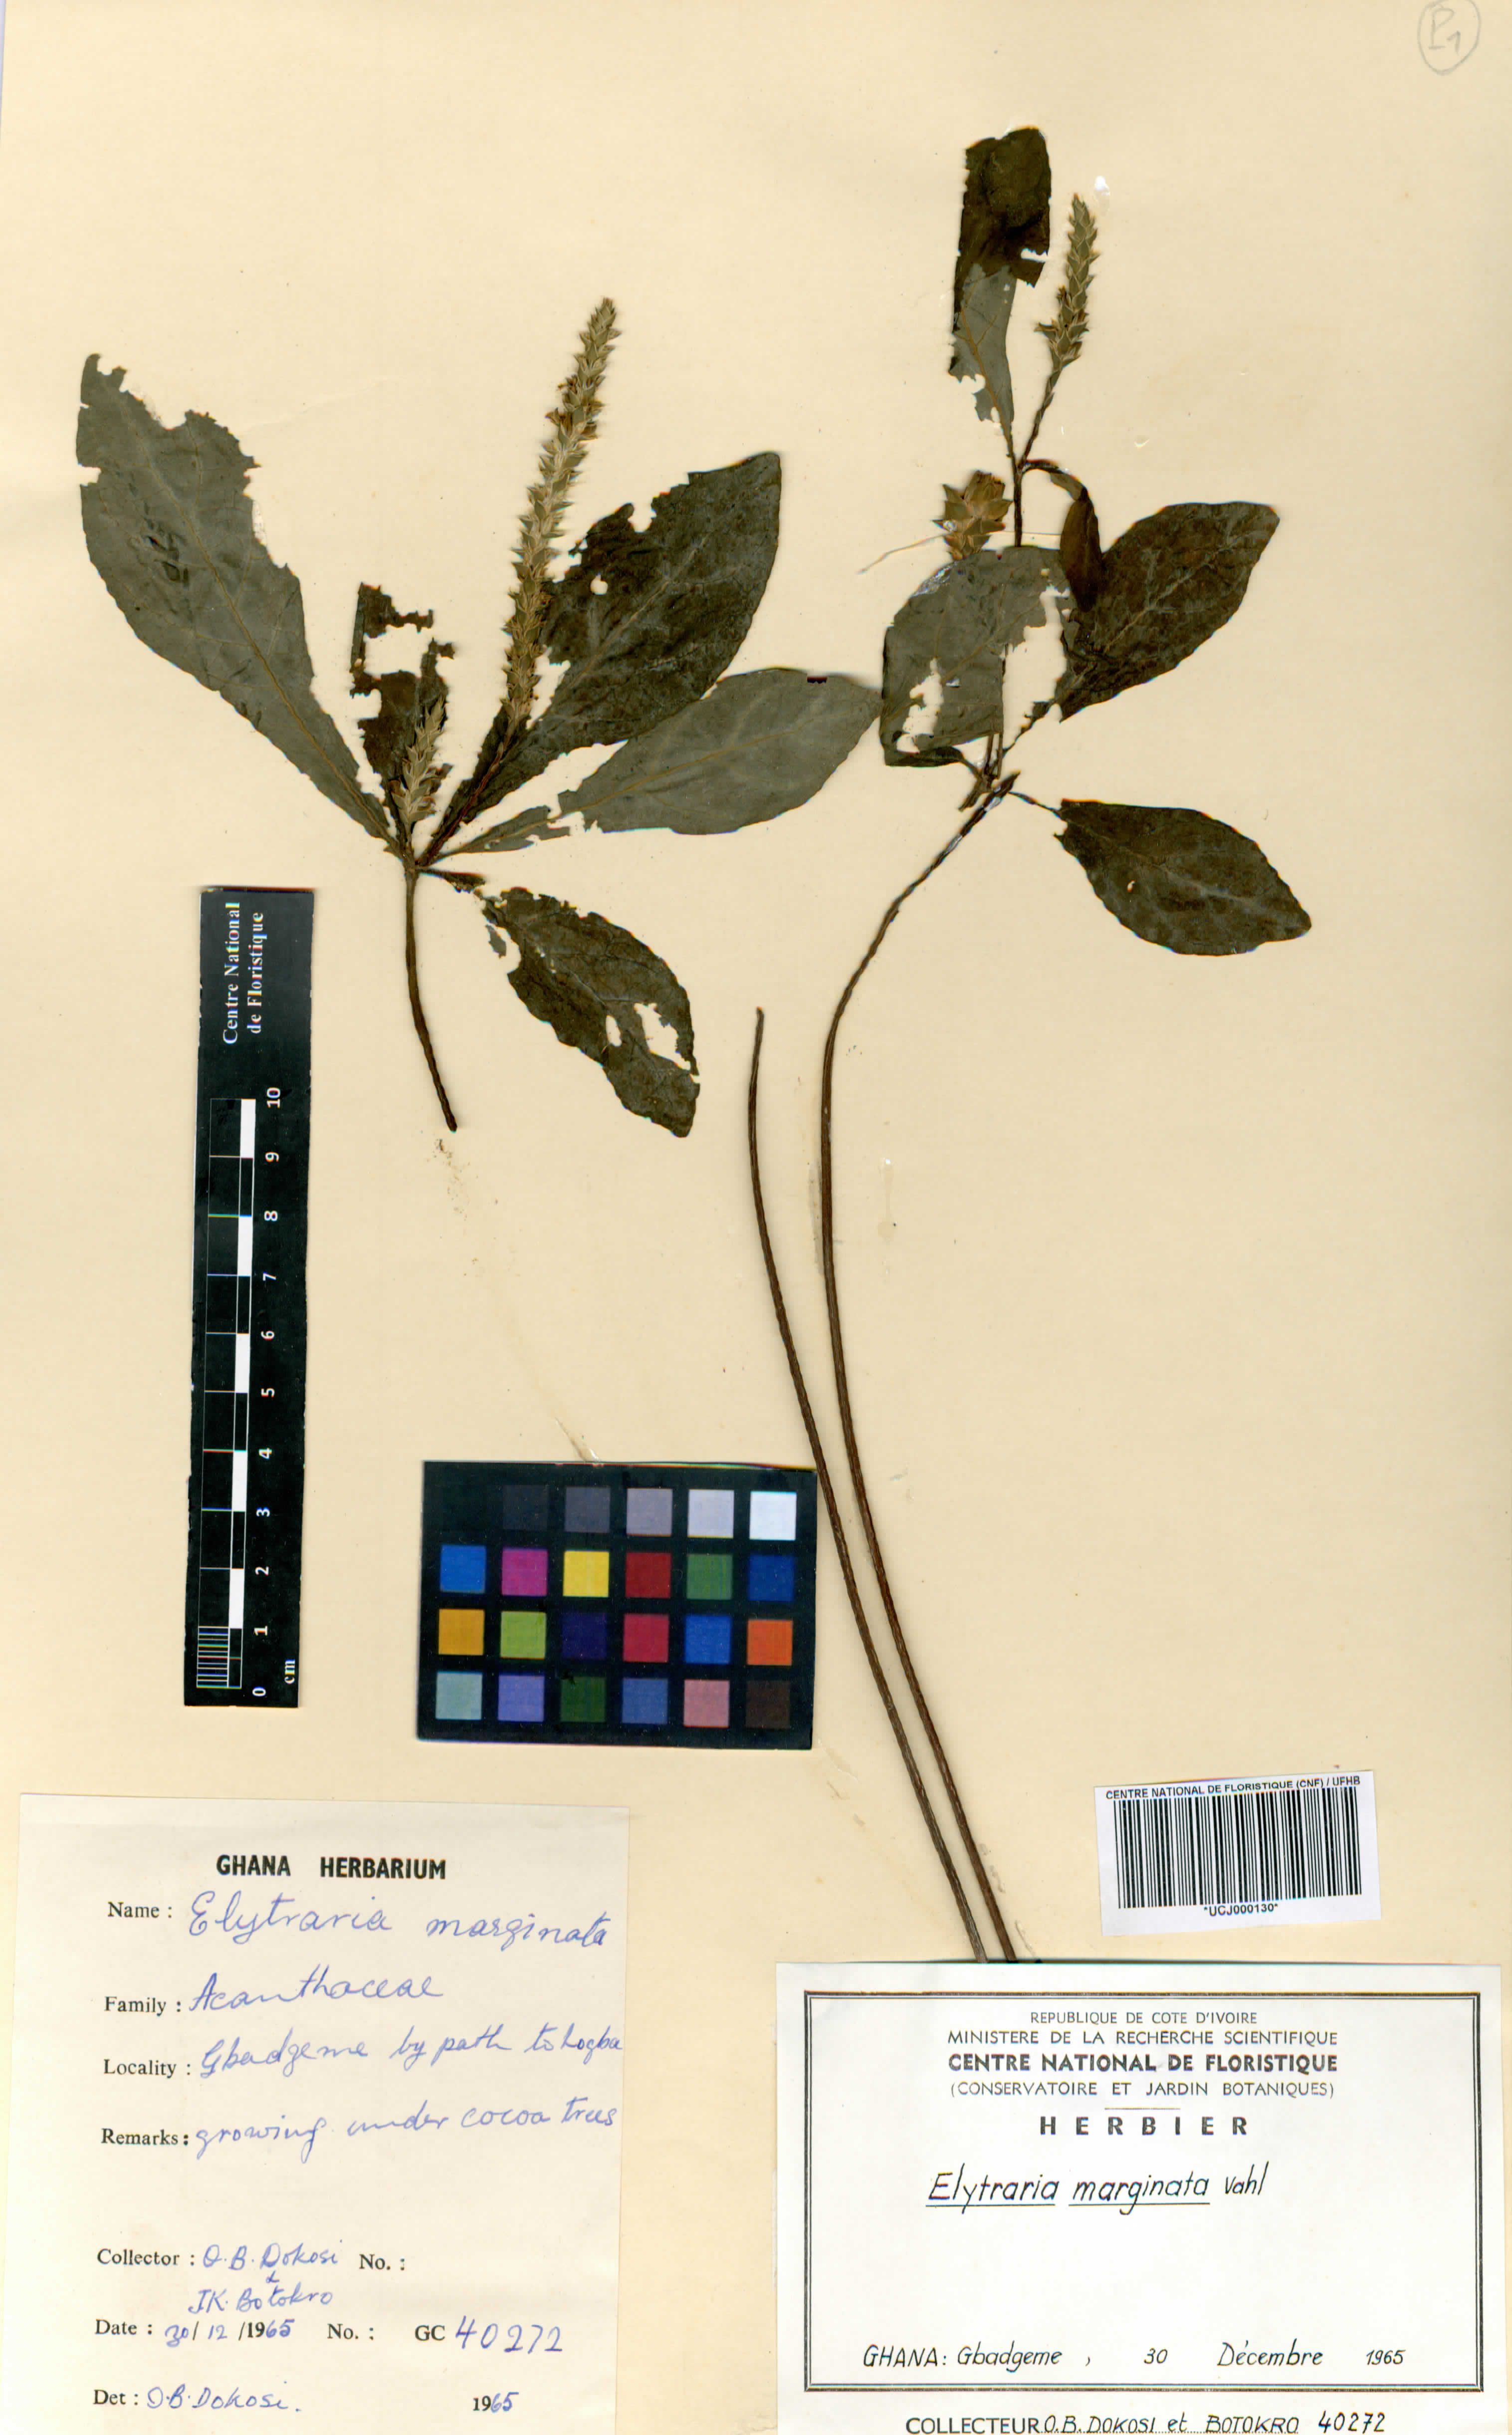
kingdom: Plantae
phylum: Tracheophyta
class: Magnoliopsida
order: Lamiales
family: Acanthaceae
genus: Elytraria
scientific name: Elytraria marginata
